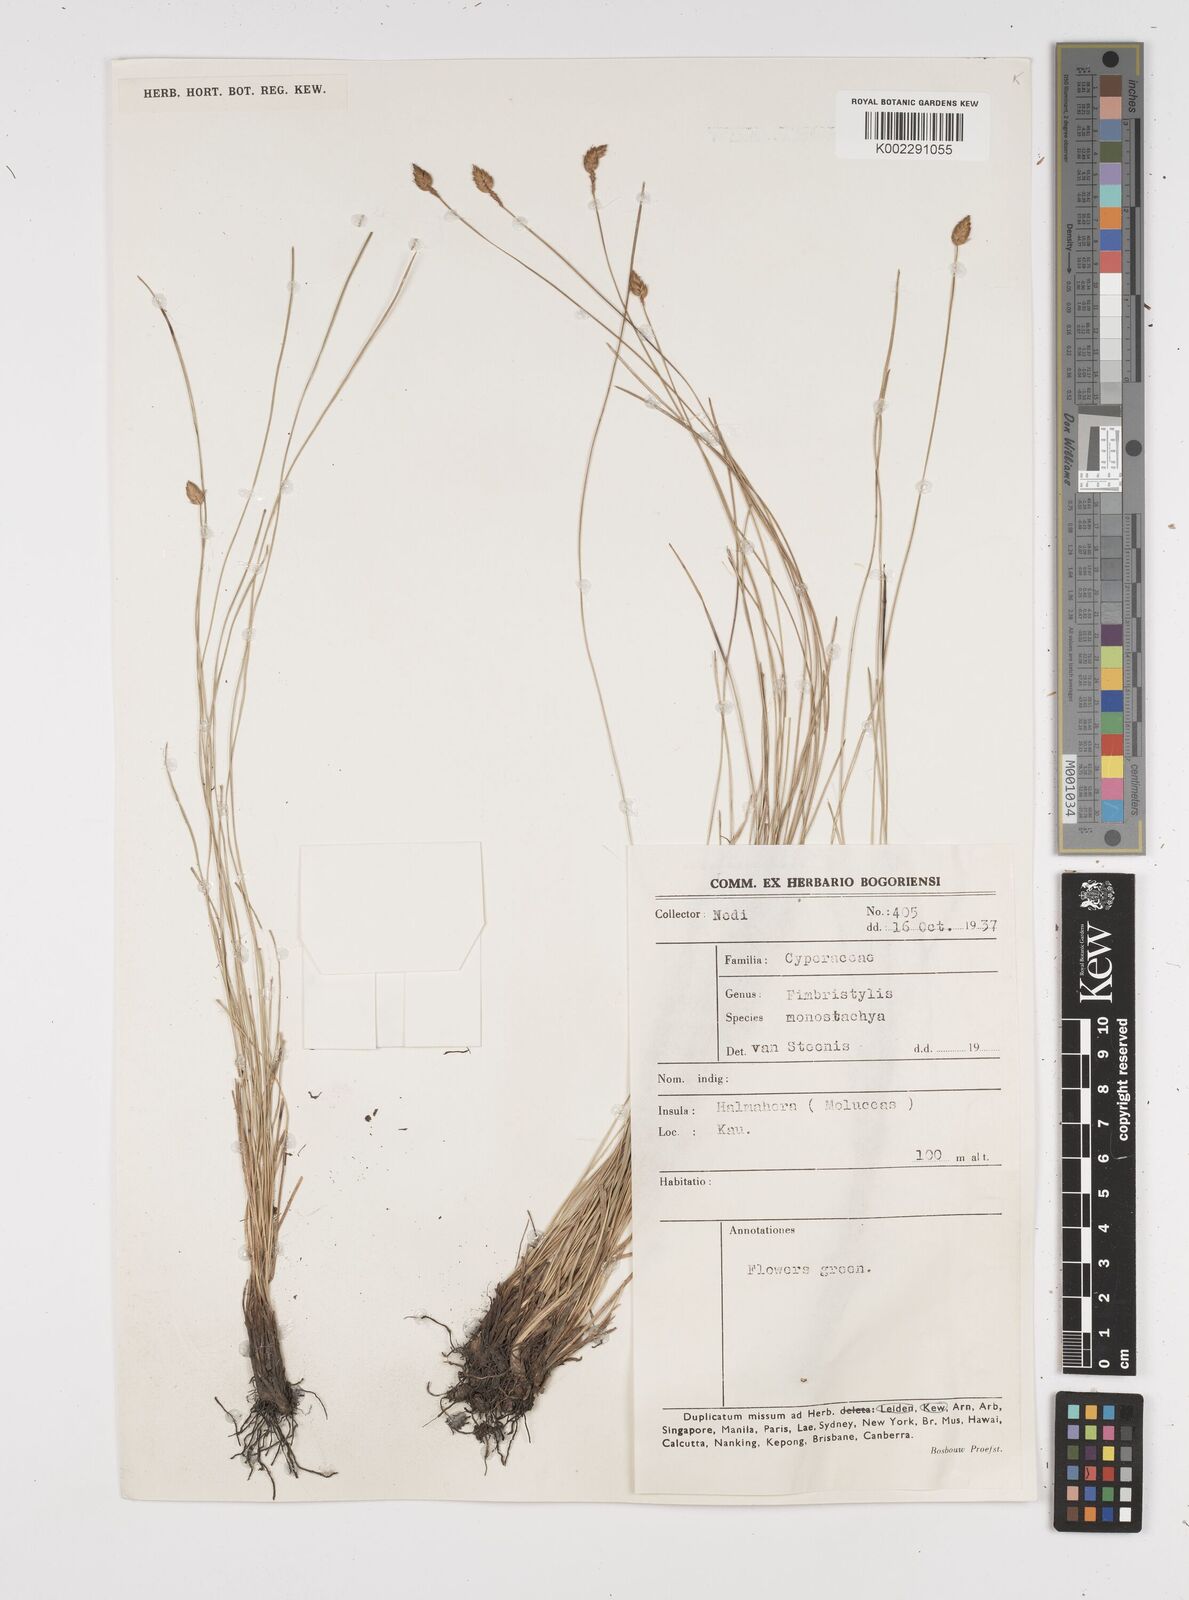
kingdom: Plantae
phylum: Tracheophyta
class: Liliopsida
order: Poales
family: Cyperaceae
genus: Abildgaardia
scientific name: Abildgaardia ovata
